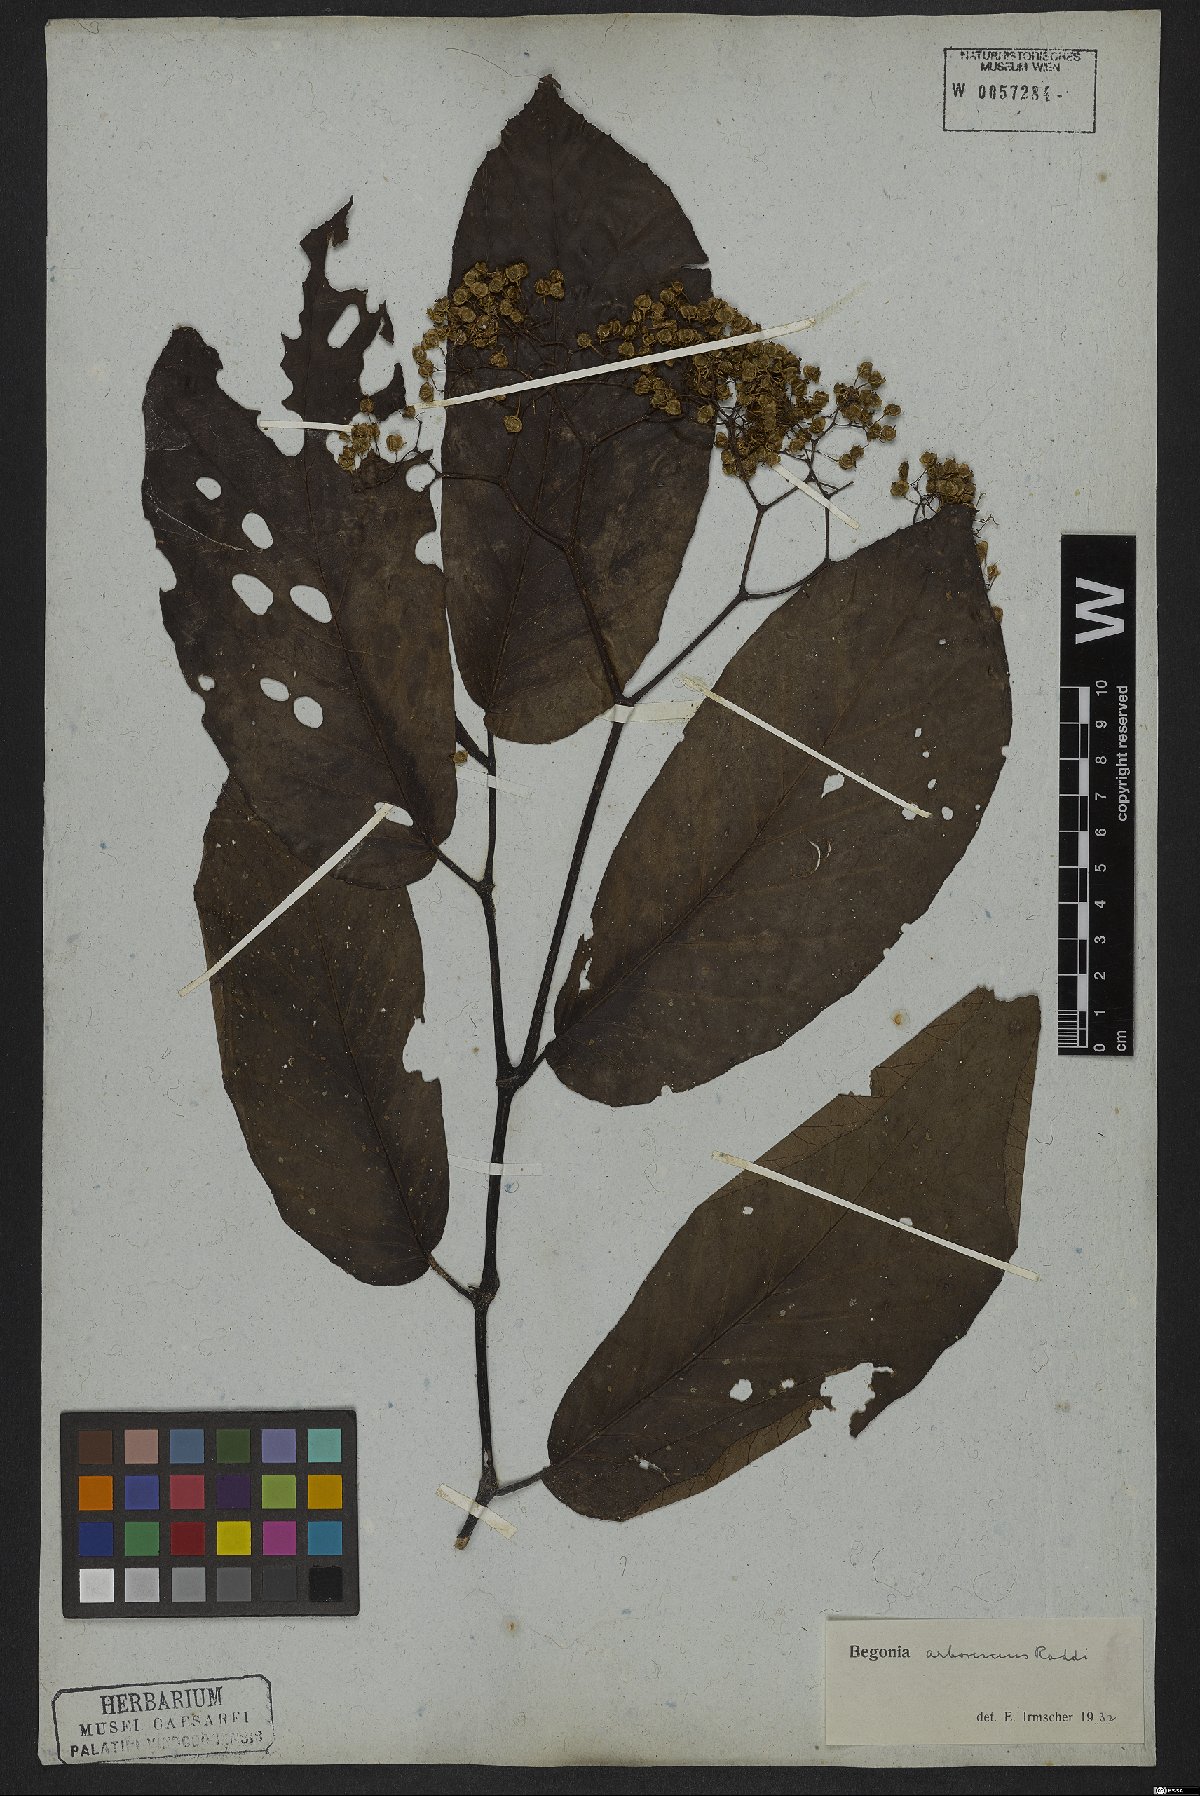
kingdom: Plantae
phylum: Tracheophyta
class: Magnoliopsida
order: Cucurbitales
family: Begoniaceae
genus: Begonia
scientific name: Begonia arborescens
